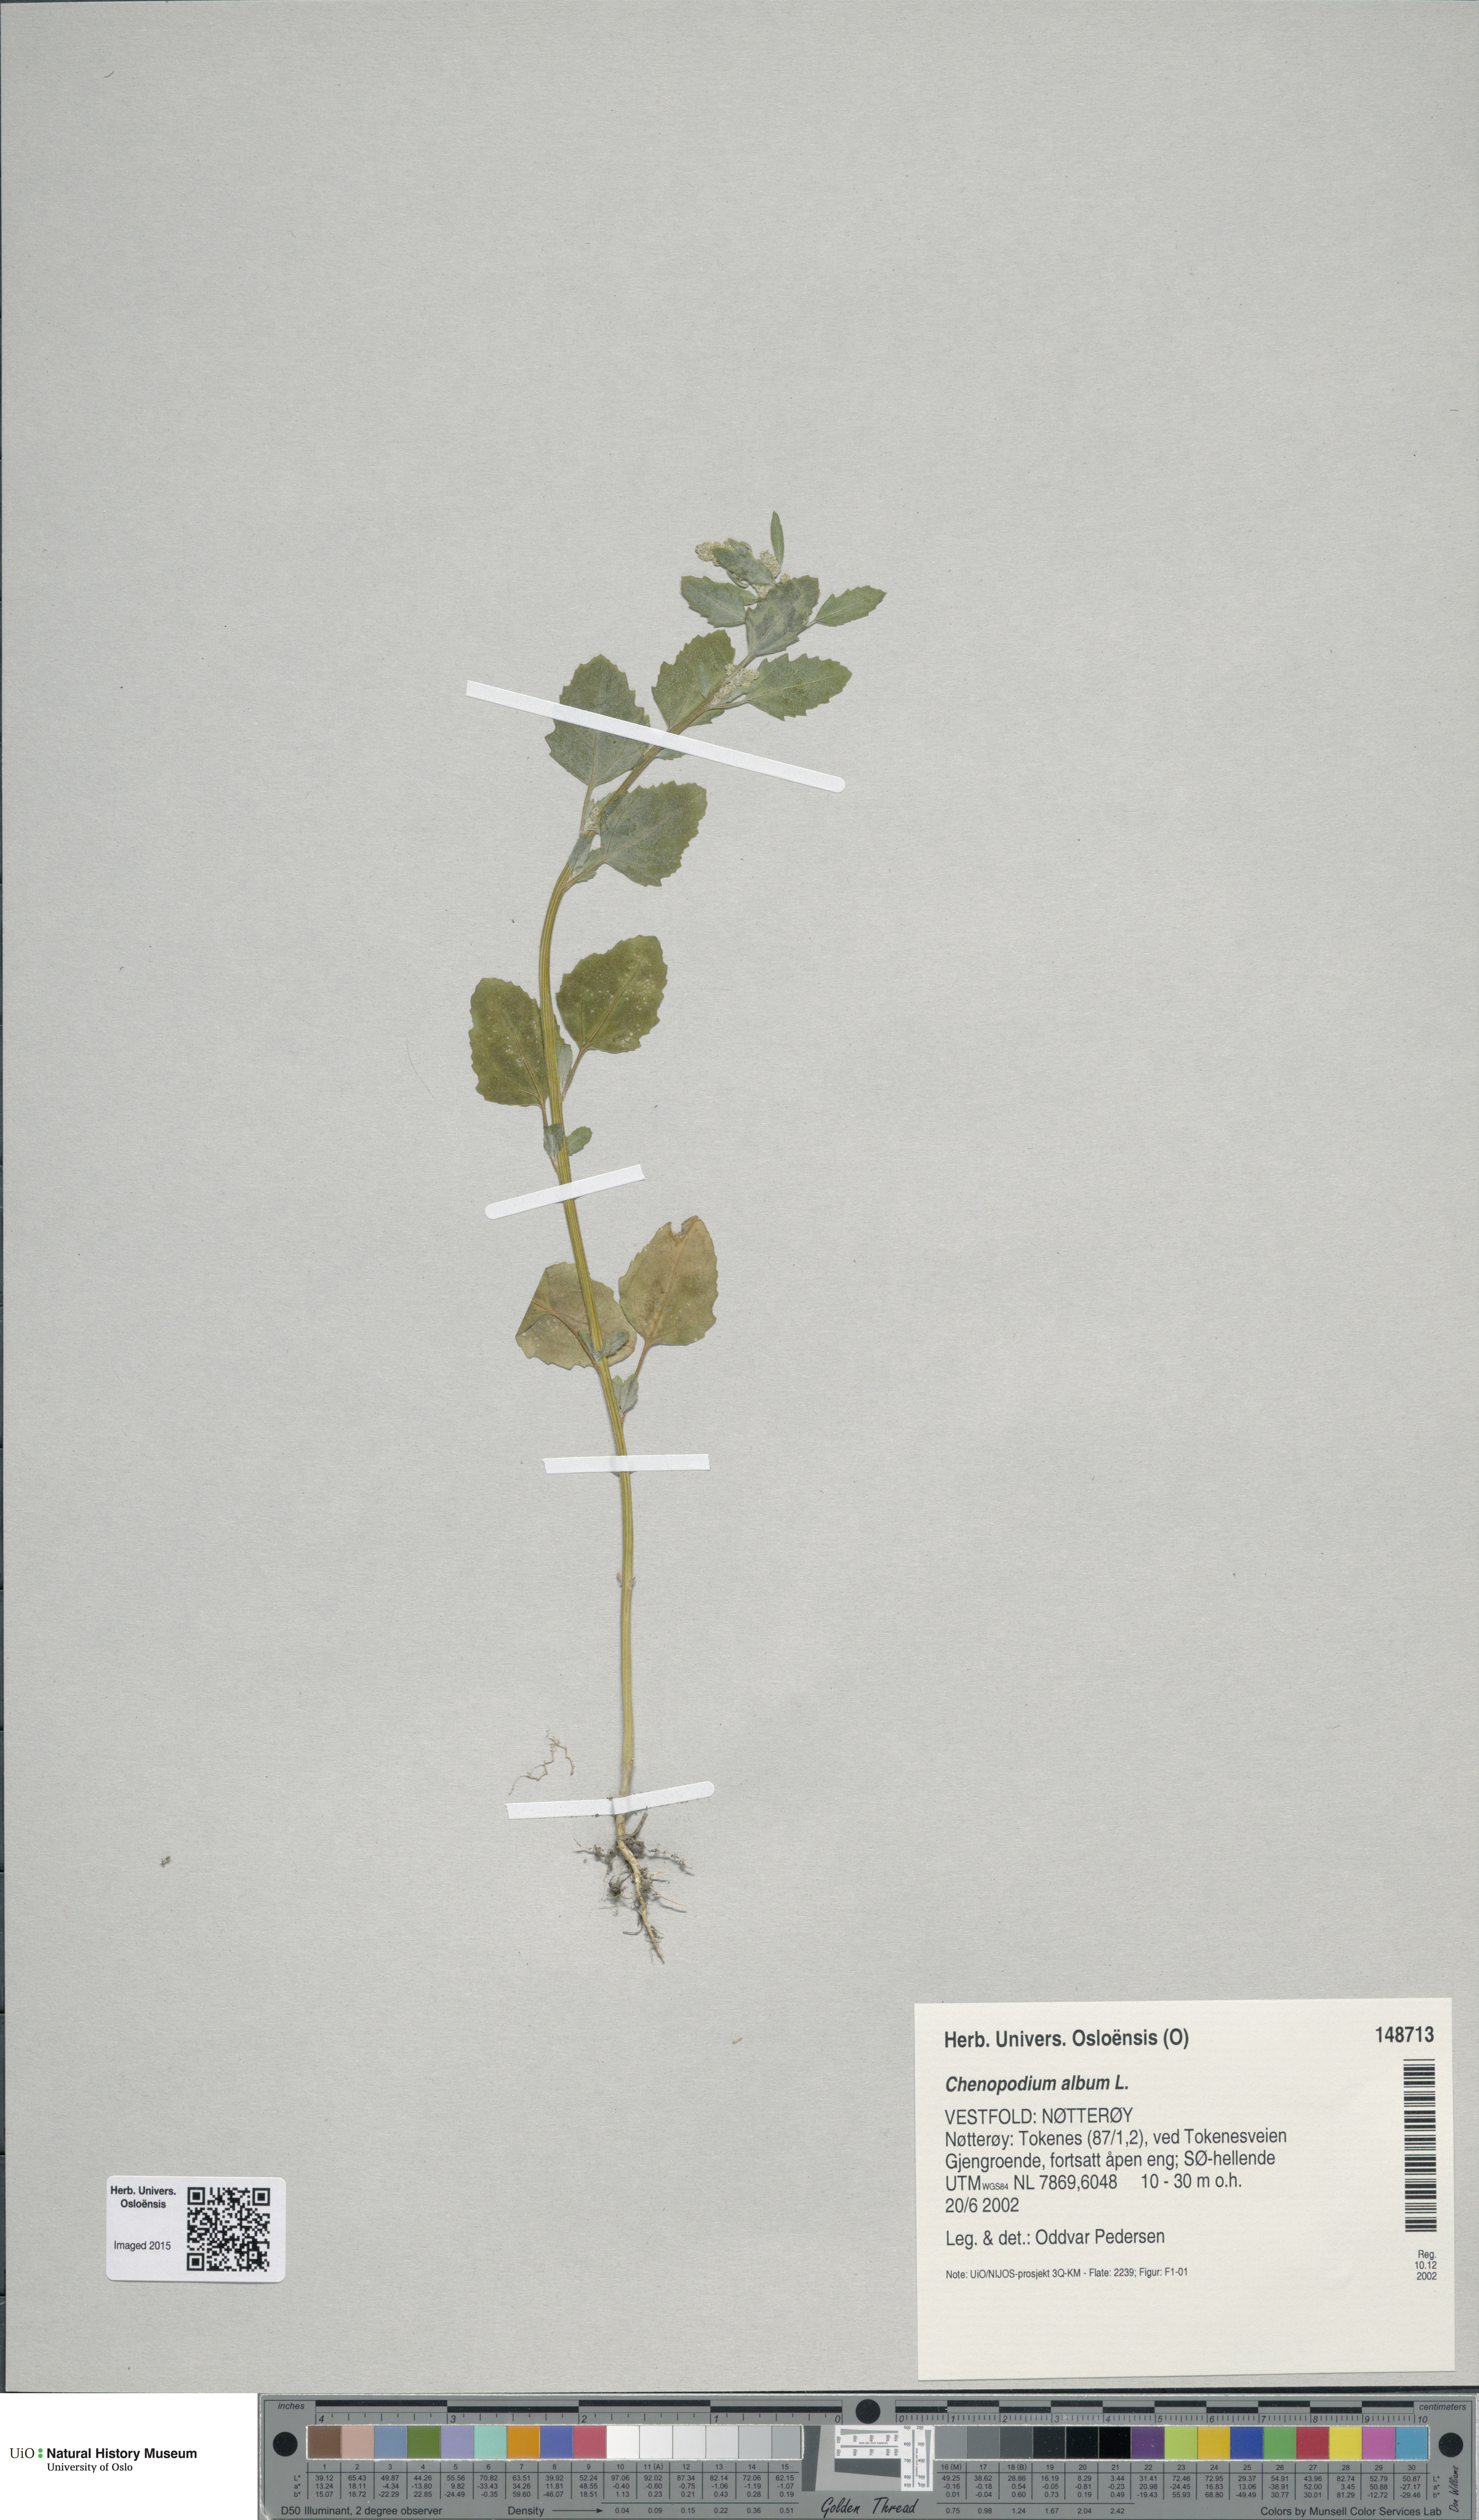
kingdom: Plantae
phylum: Tracheophyta
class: Magnoliopsida
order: Caryophyllales
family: Amaranthaceae
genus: Chenopodium
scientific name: Chenopodium album
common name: Fat-hen
